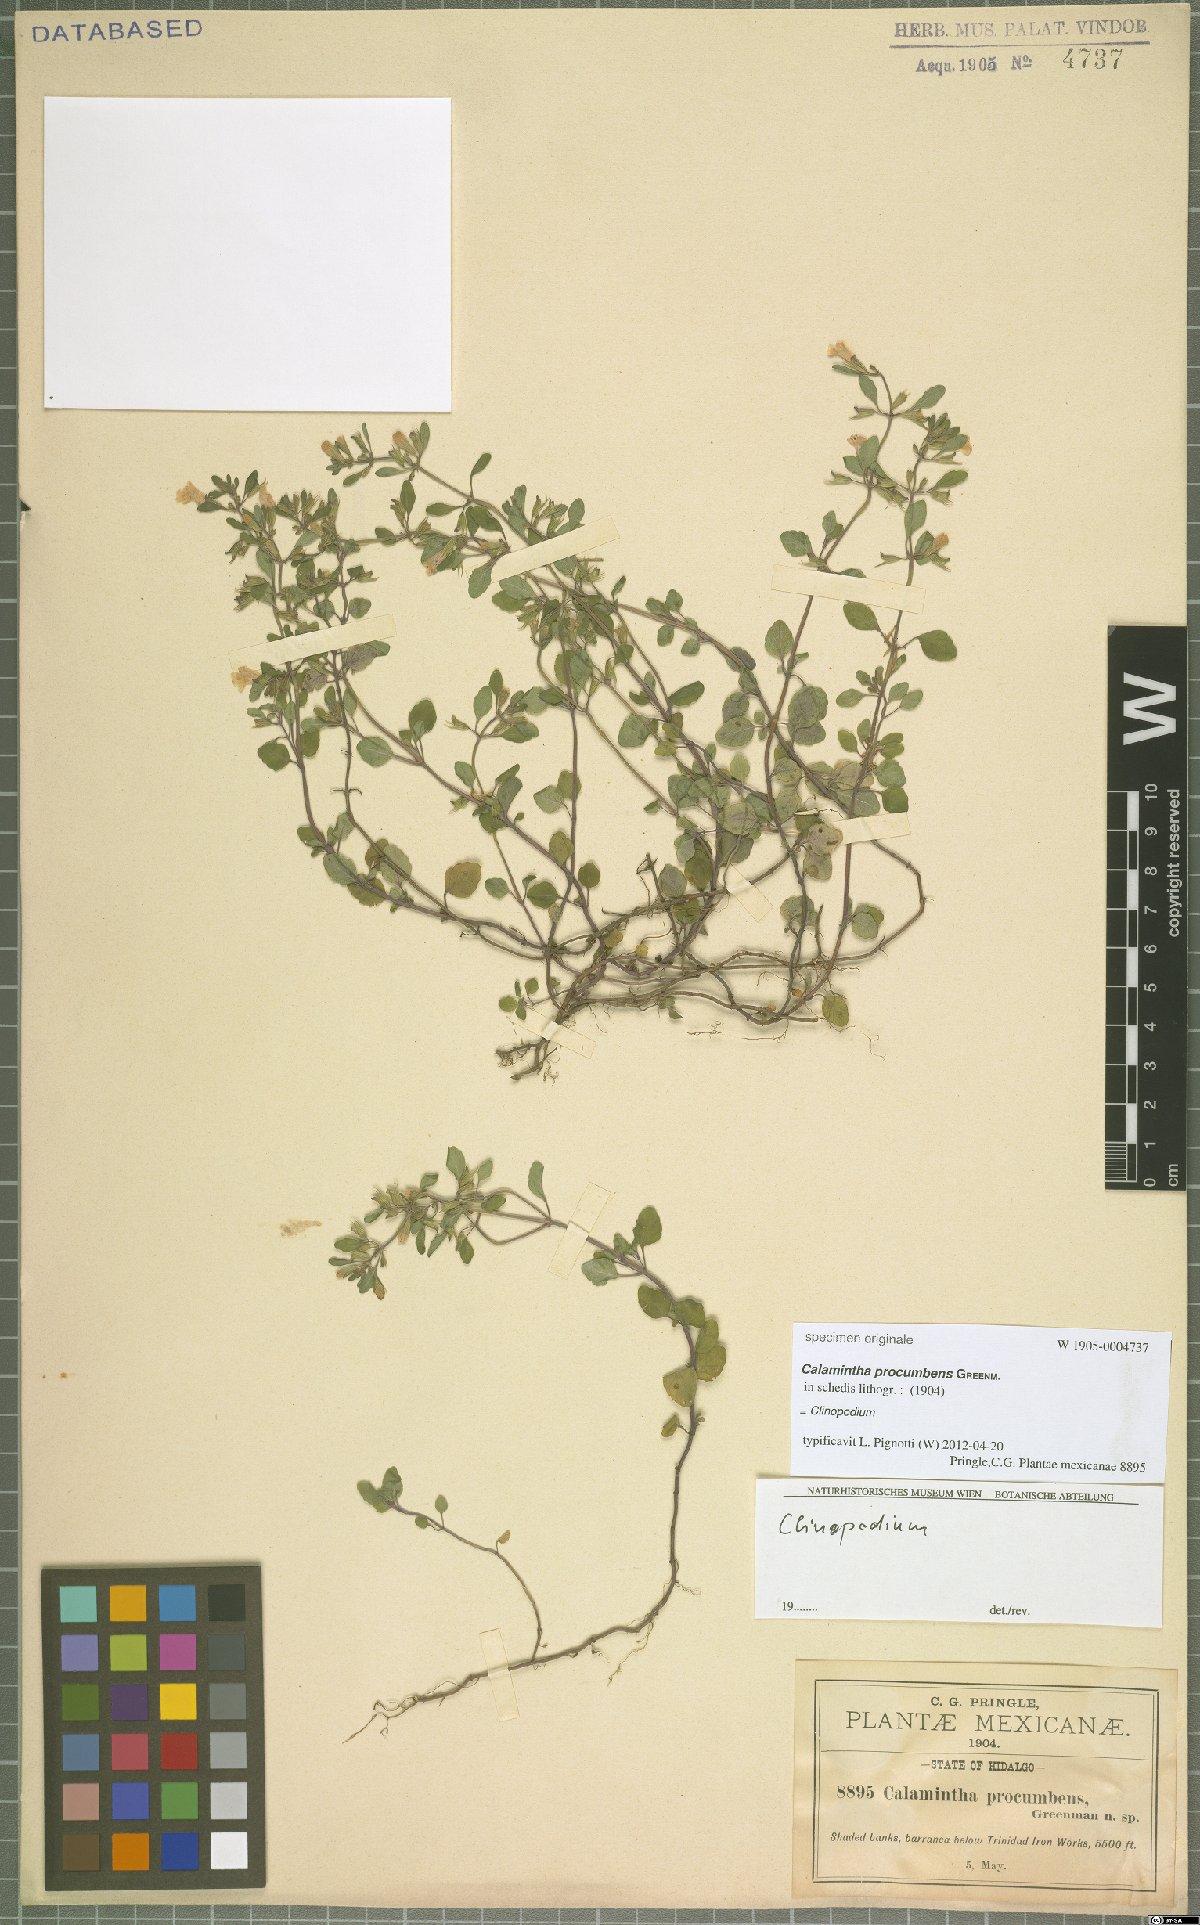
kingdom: Plantae
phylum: Tracheophyta
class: Magnoliopsida
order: Lamiales
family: Lamiaceae
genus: Clinopodium
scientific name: Clinopodium
